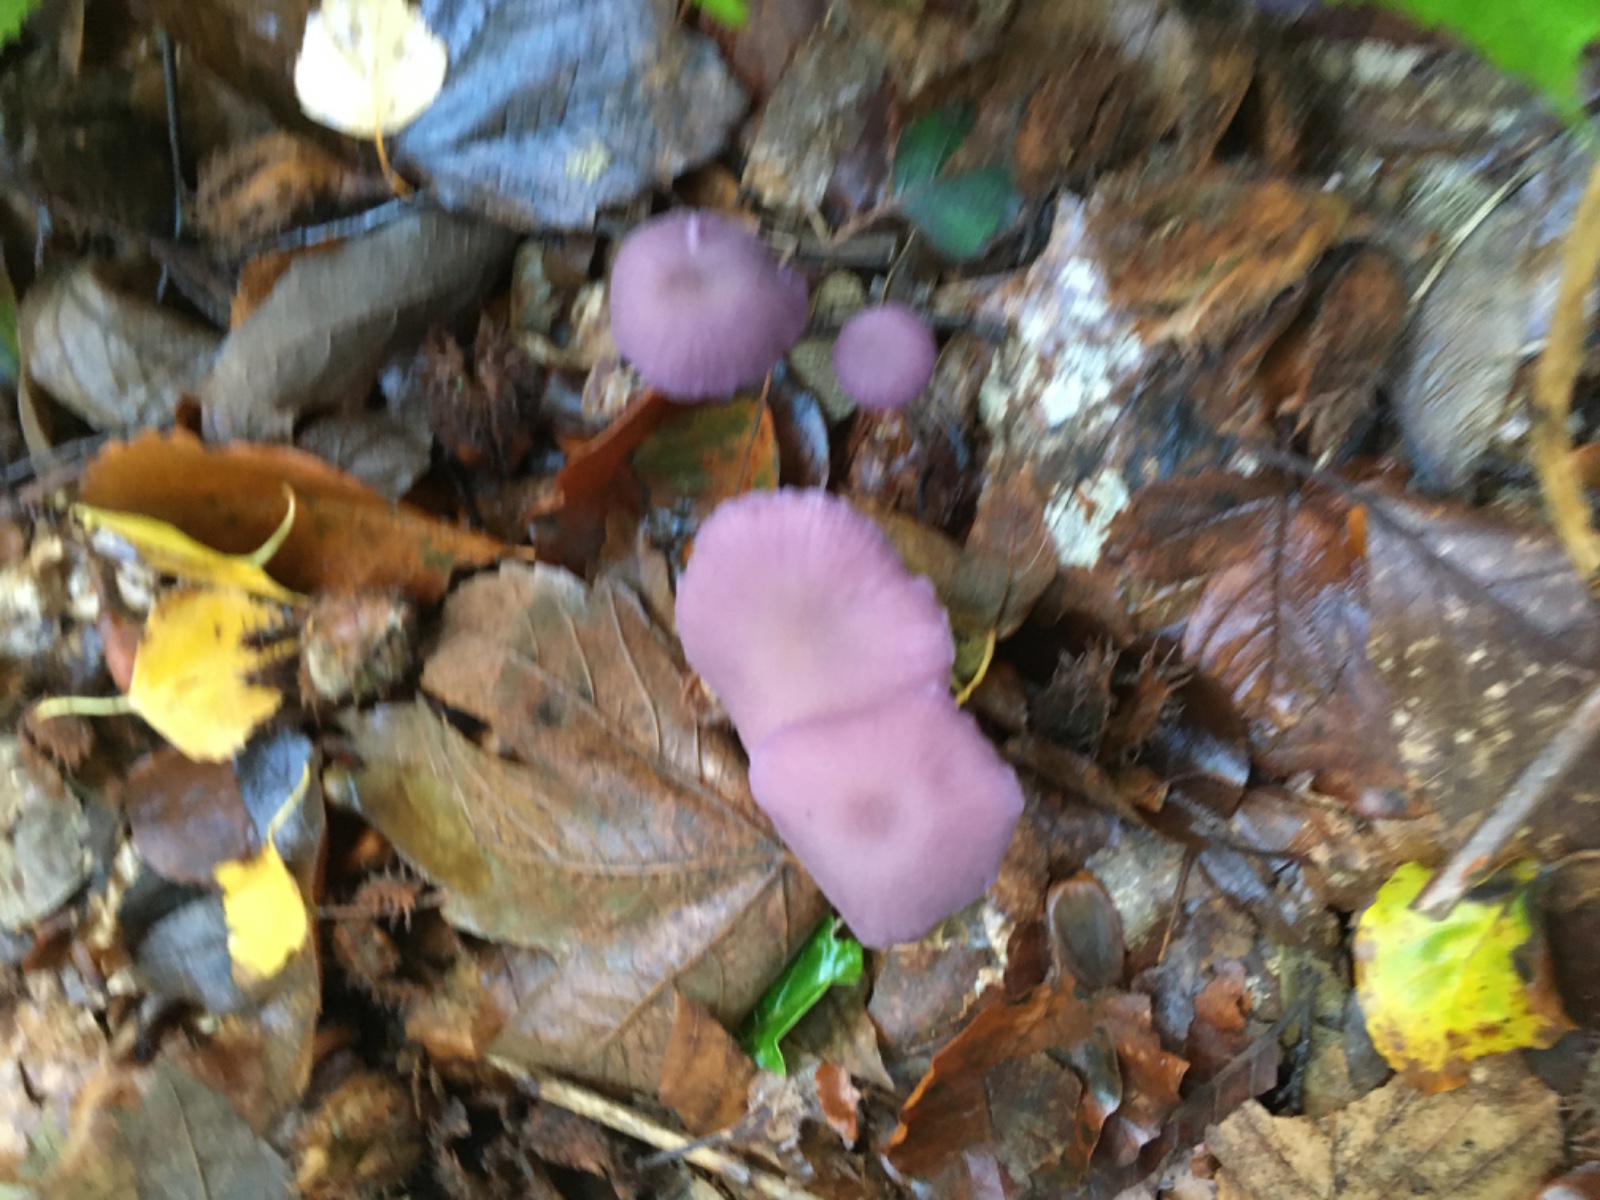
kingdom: Fungi
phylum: Basidiomycota
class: Agaricomycetes
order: Agaricales
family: Hydnangiaceae
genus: Laccaria
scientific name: Laccaria amethystina
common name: violet ametysthat
